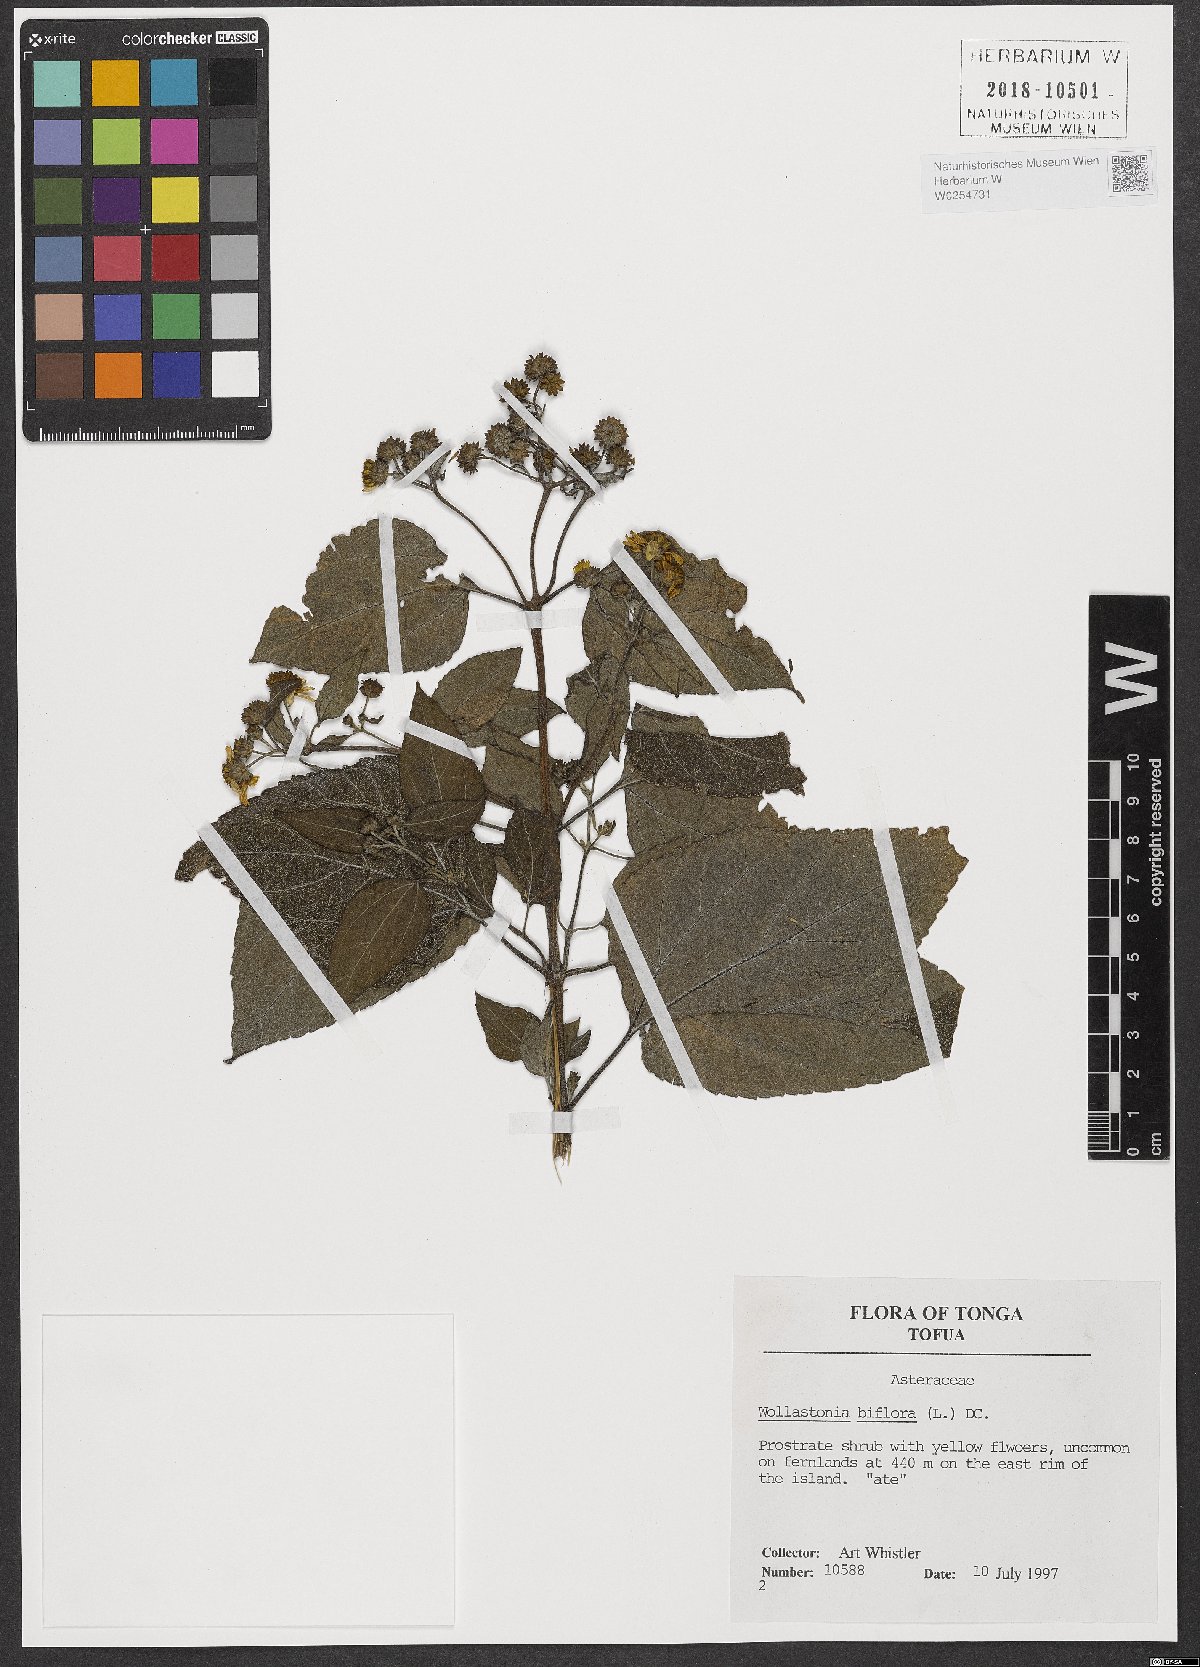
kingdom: Plantae
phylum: Tracheophyta
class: Magnoliopsida
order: Asterales
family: Asteraceae
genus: Wollastonia
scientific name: Wollastonia biflora
